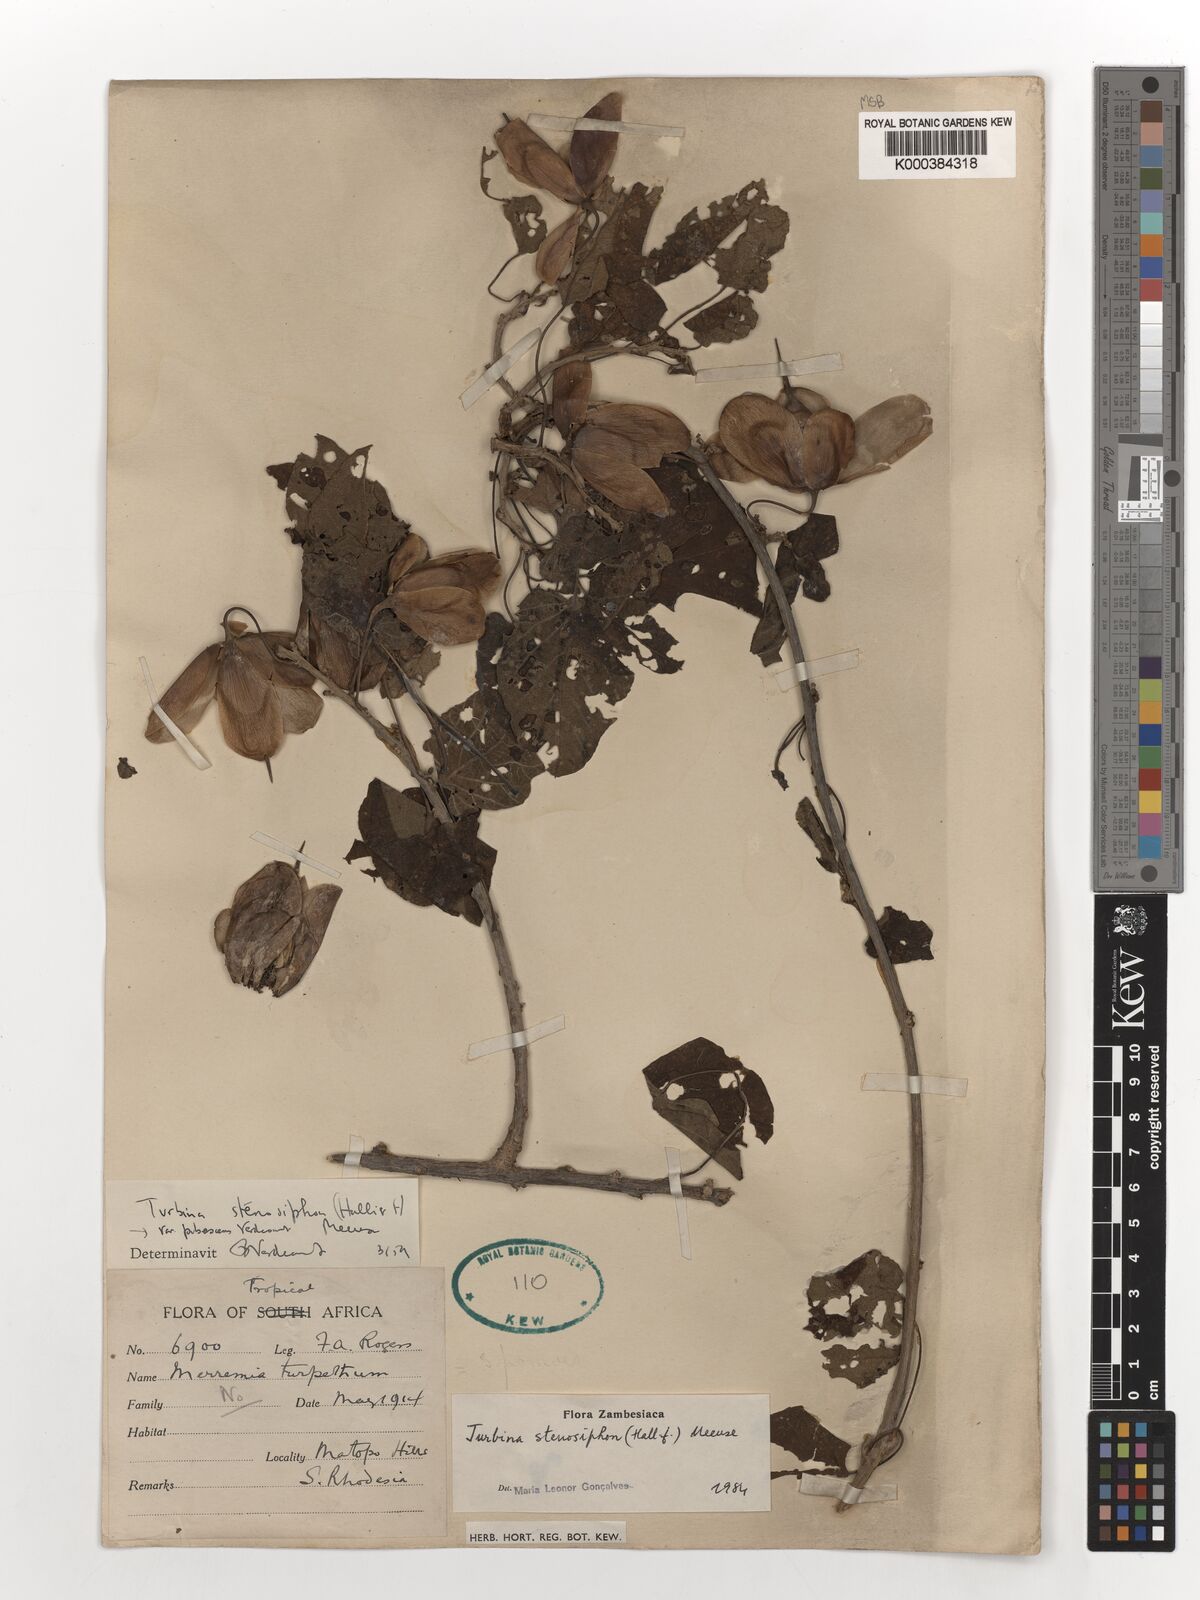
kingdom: Plantae
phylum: Tracheophyta
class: Magnoliopsida
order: Solanales
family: Convolvulaceae
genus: Ipomoea
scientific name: Ipomoea stenosiphon
